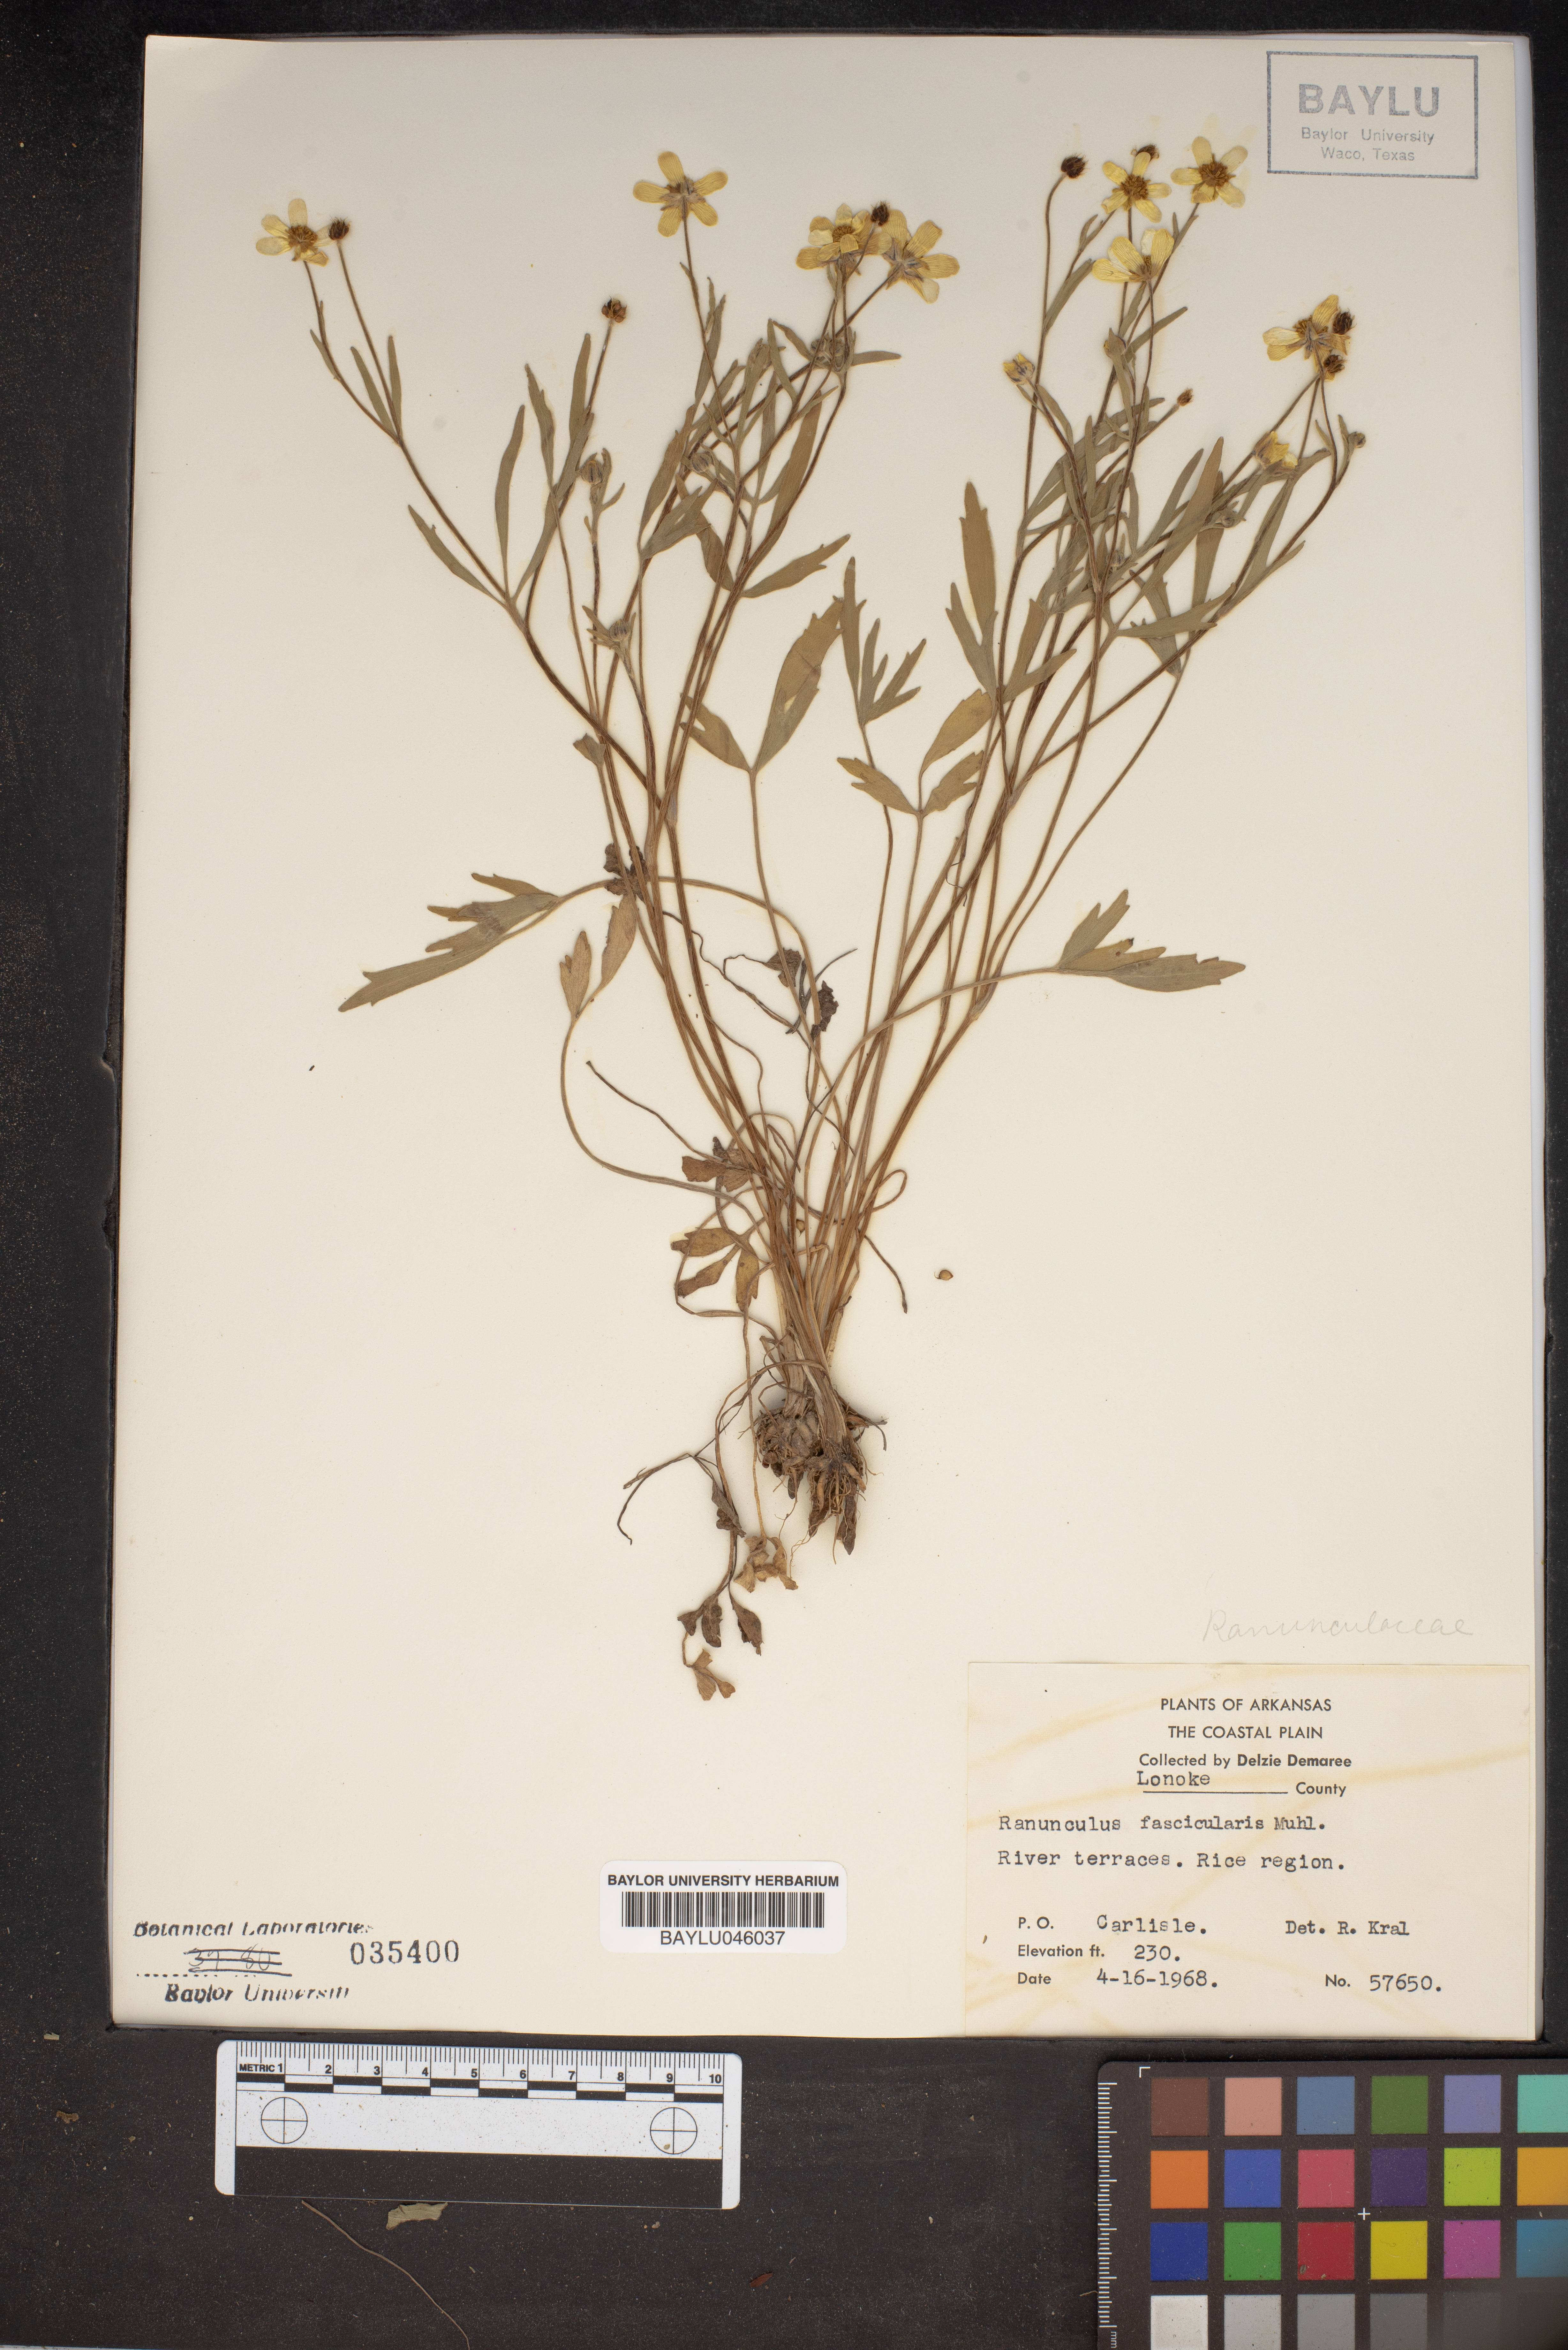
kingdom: Plantae
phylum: Tracheophyta
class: Magnoliopsida
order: Ranunculales
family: Ranunculaceae
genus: Ranunculus
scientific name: Ranunculus fascicularis
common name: Early buttercup
